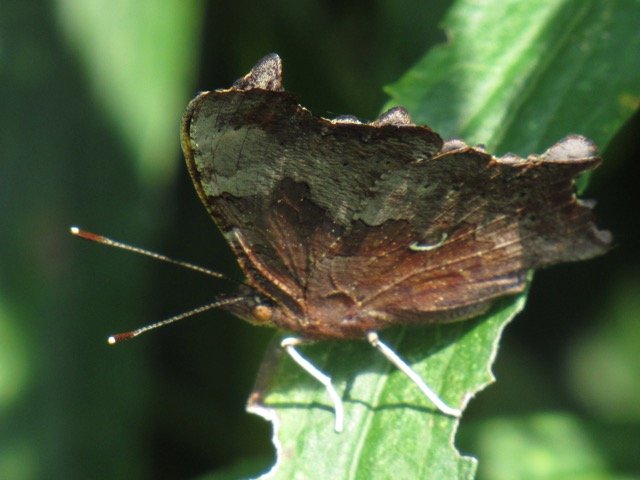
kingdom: Animalia
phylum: Arthropoda
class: Insecta
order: Lepidoptera
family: Nymphalidae
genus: Polygonia
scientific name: Polygonia comma
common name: Eastern Comma
